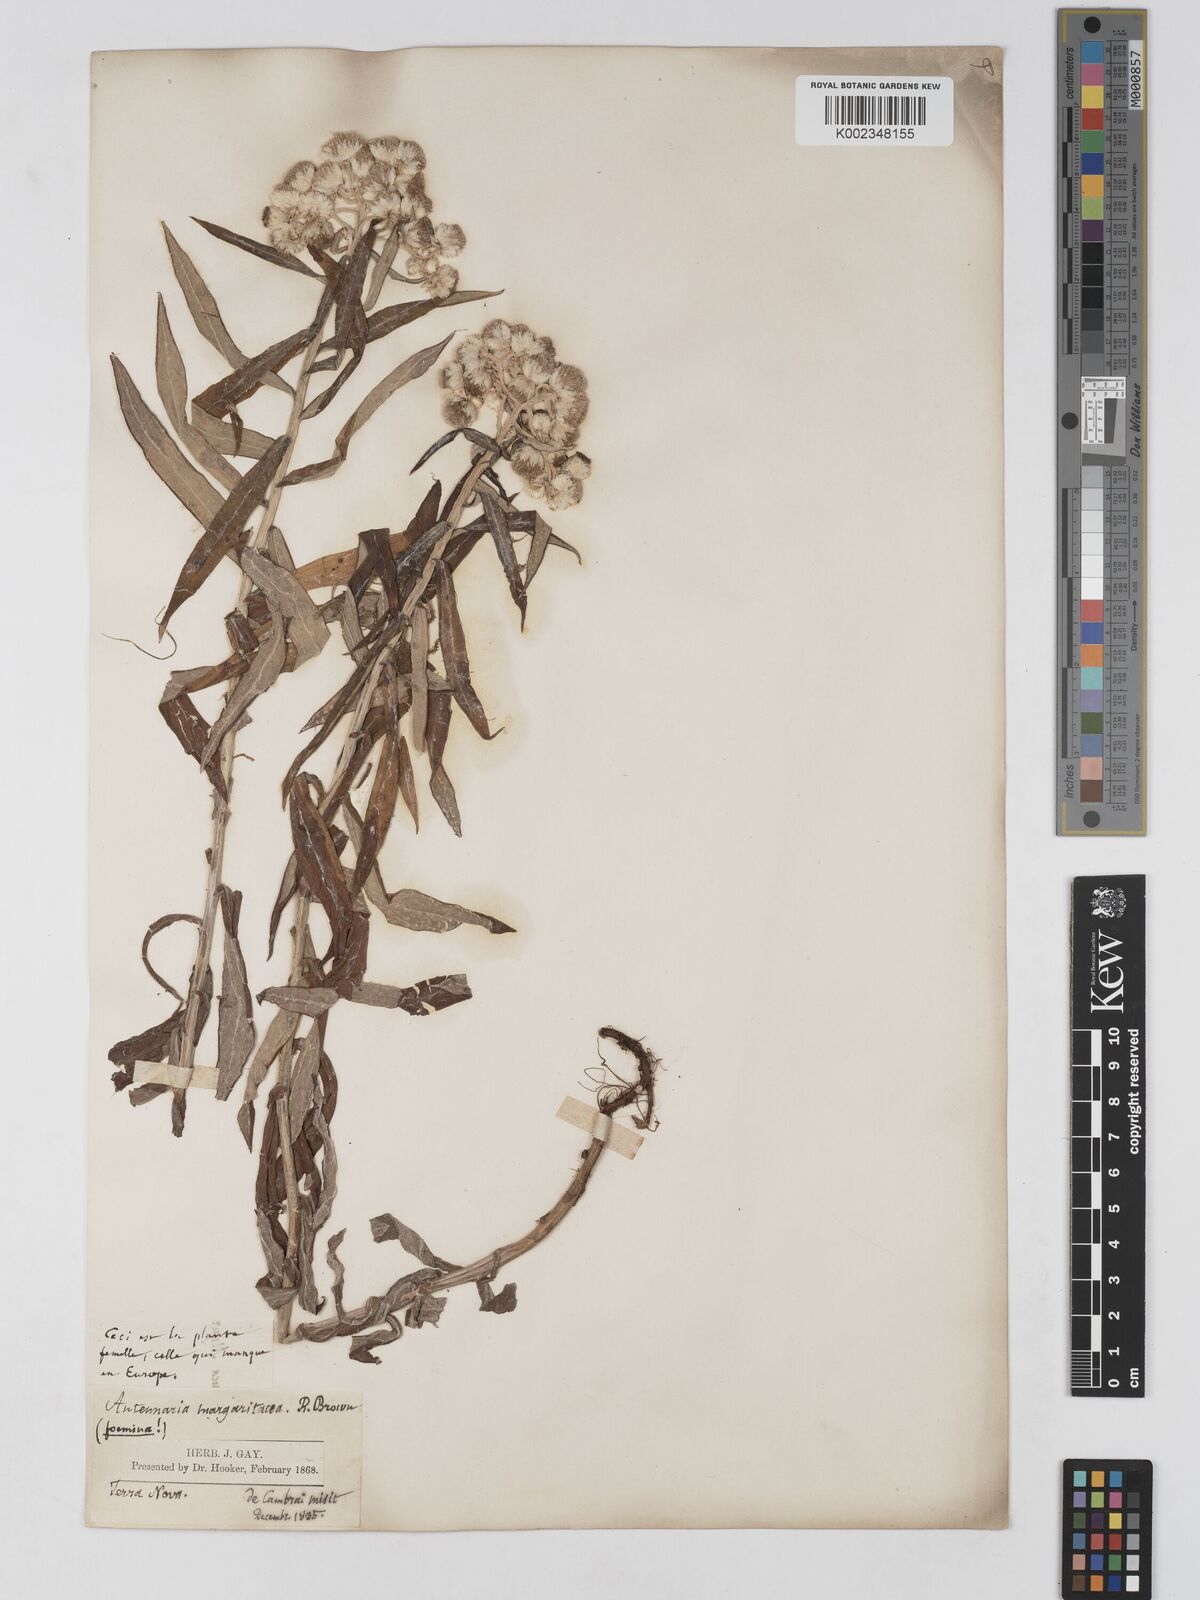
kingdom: Plantae
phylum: Tracheophyta
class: Magnoliopsida
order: Asterales
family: Asteraceae
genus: Anaphalis
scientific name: Anaphalis margaritacea
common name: Pearly everlasting
